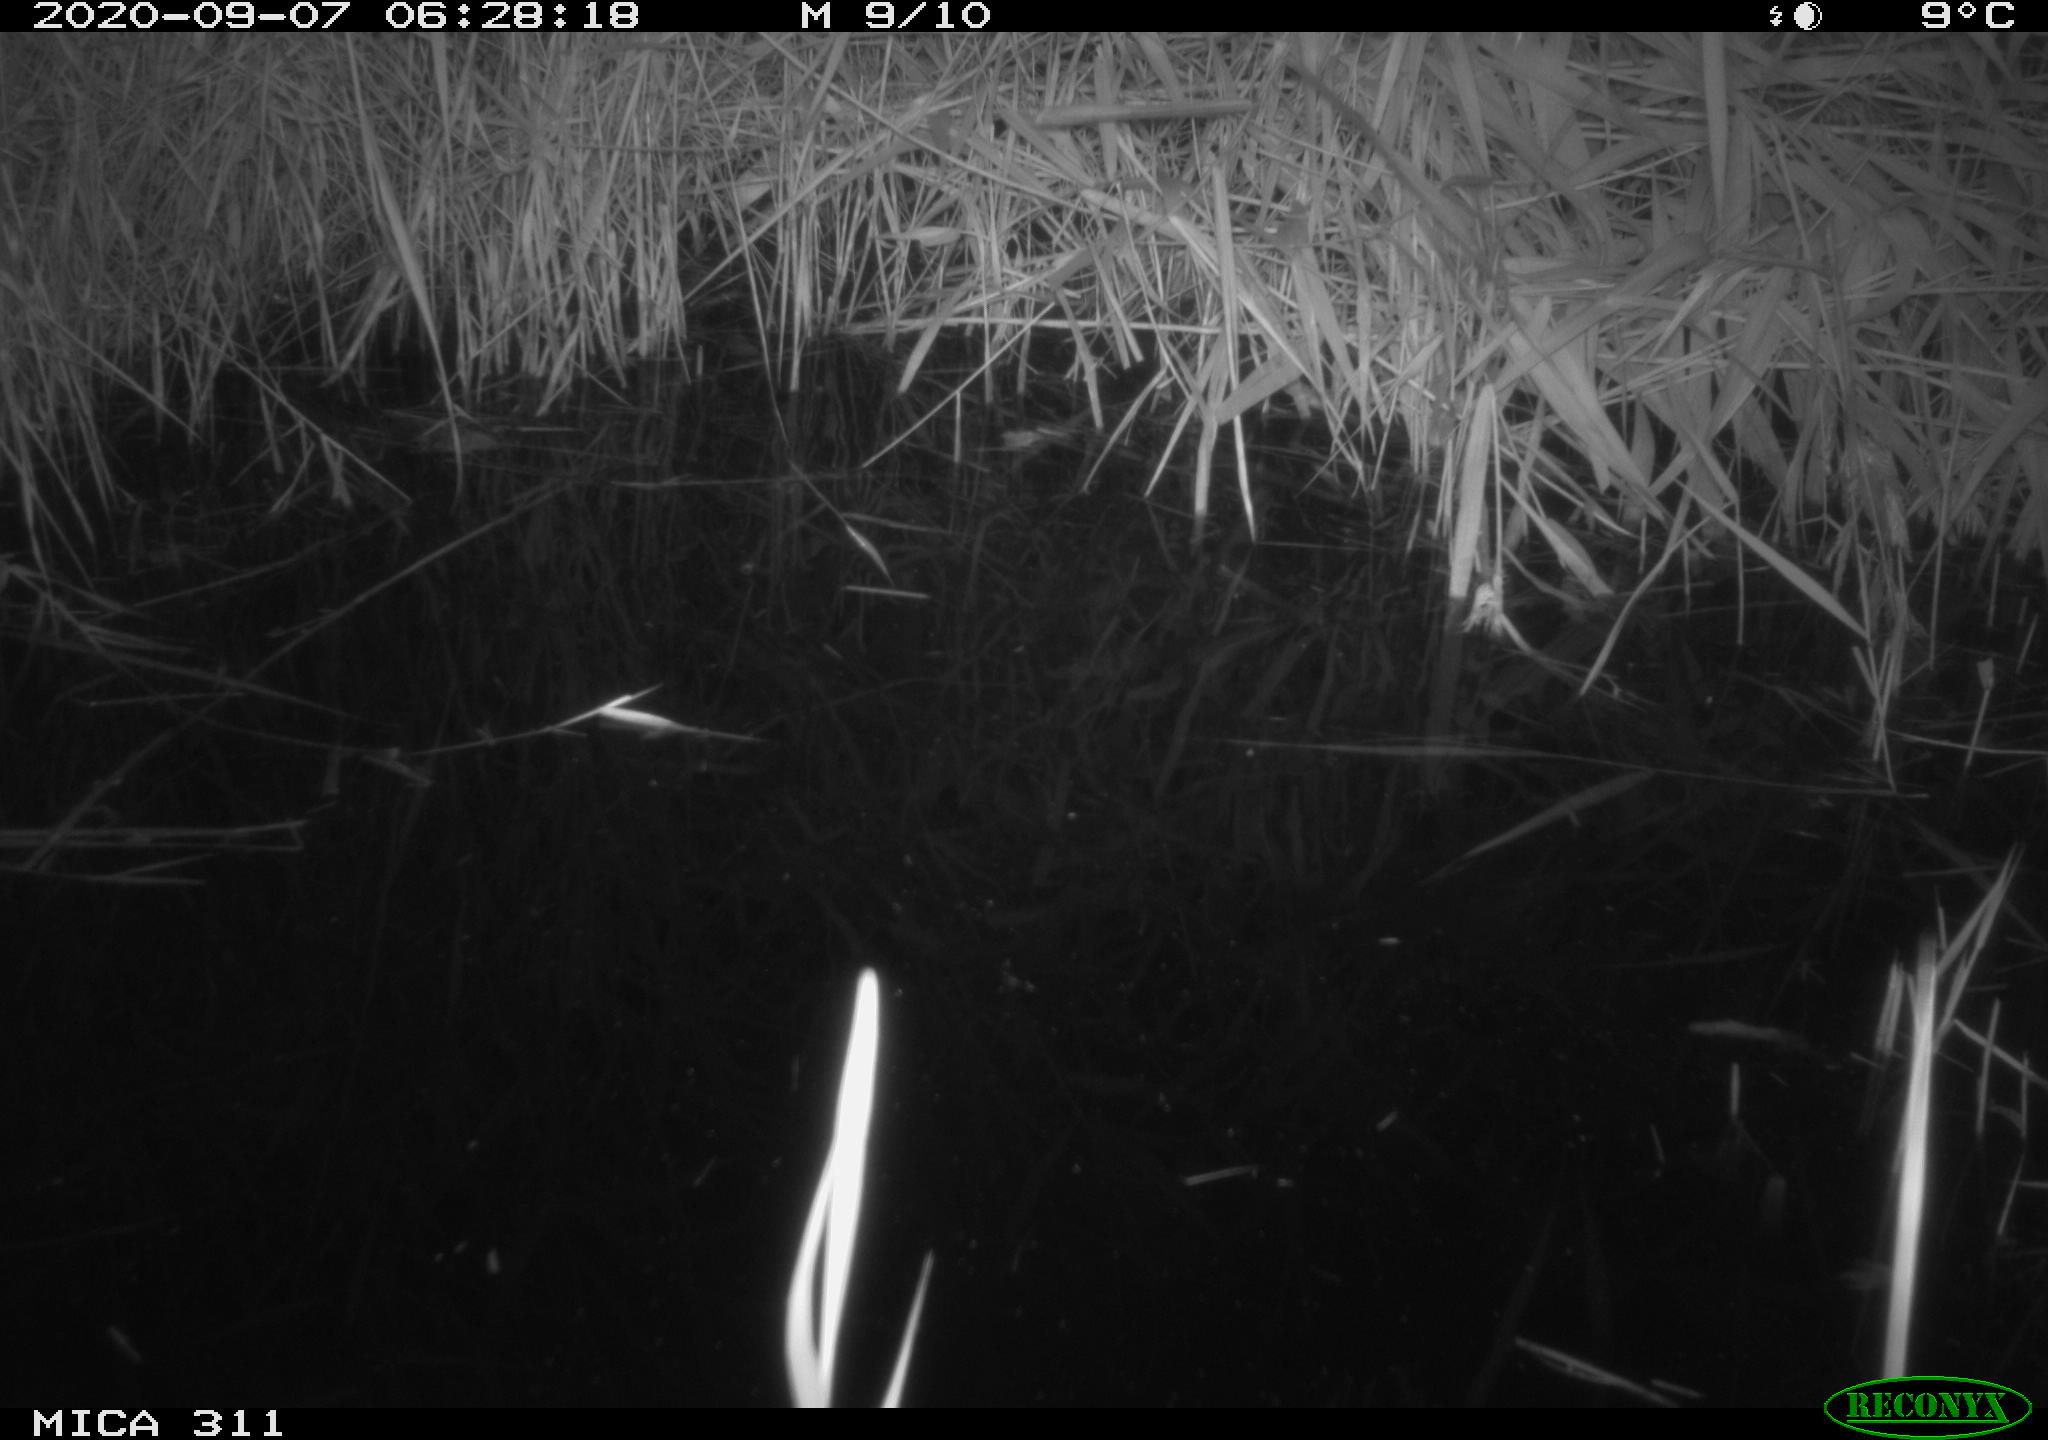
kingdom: Animalia
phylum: Chordata
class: Mammalia
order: Rodentia
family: Muridae
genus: Rattus
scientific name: Rattus norvegicus
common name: Brown rat
